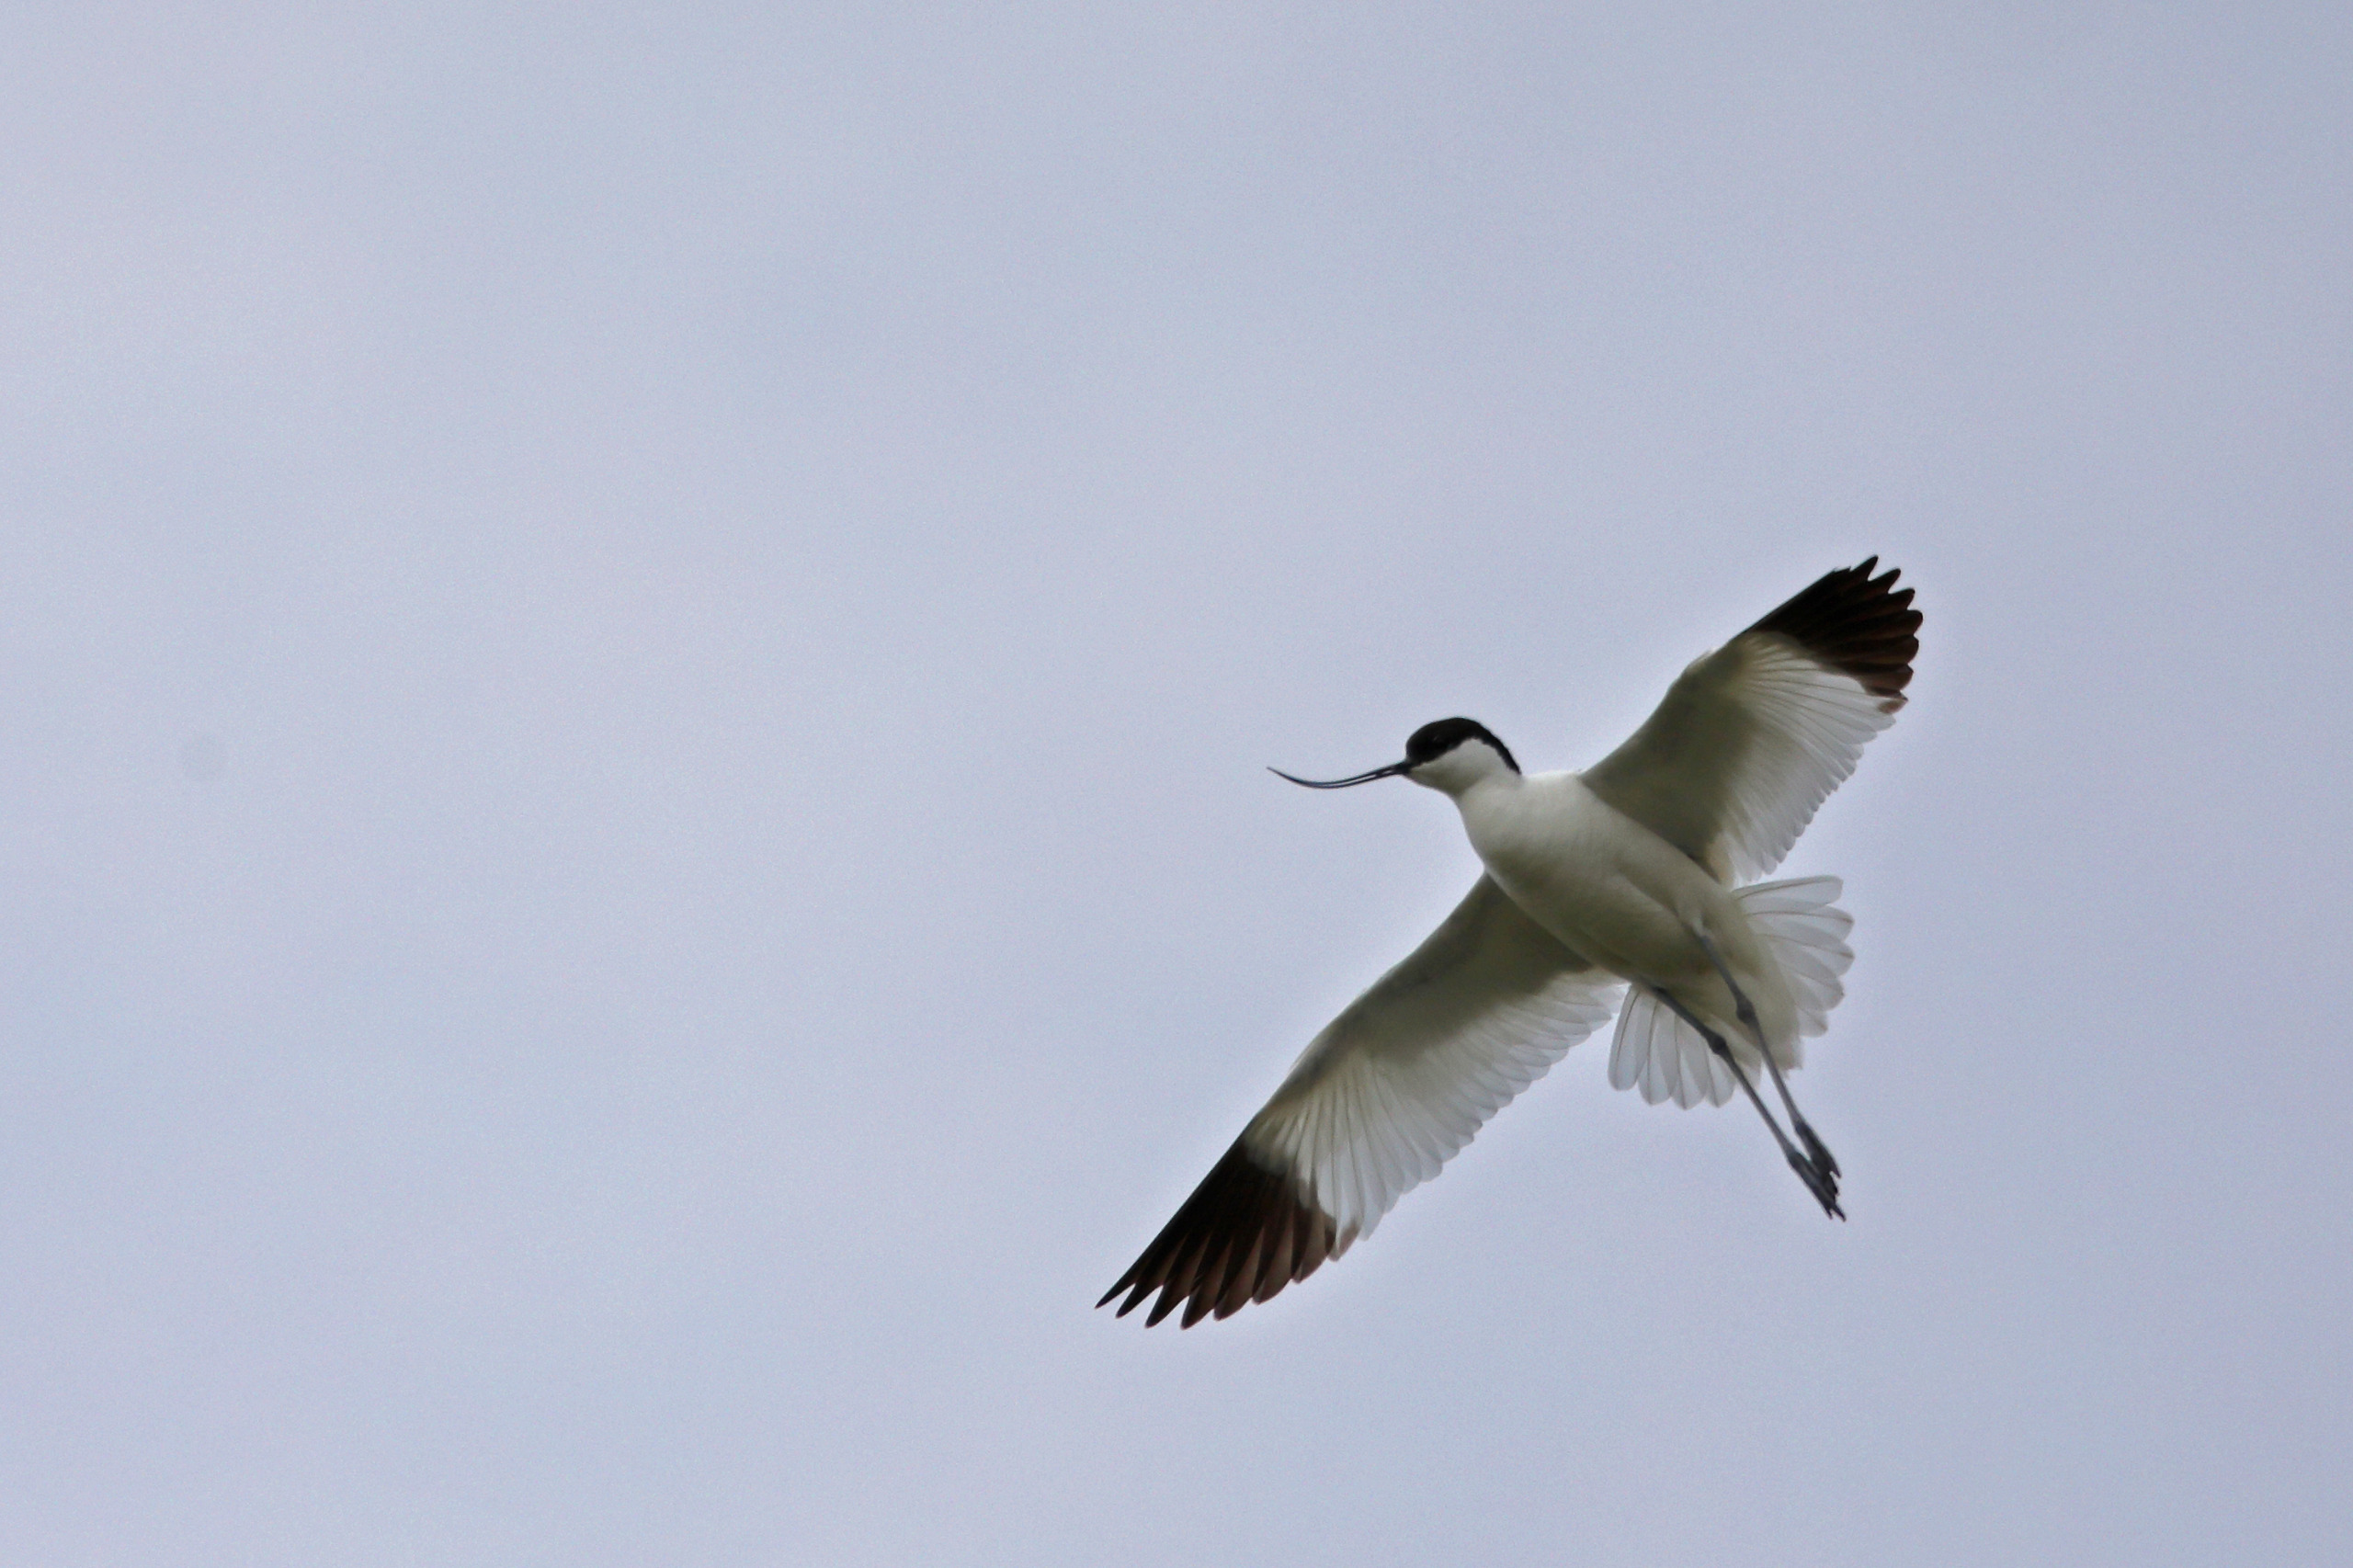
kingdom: Animalia
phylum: Chordata
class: Aves
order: Charadriiformes
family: Recurvirostridae
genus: Recurvirostra
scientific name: Recurvirostra avosetta
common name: Klyde
